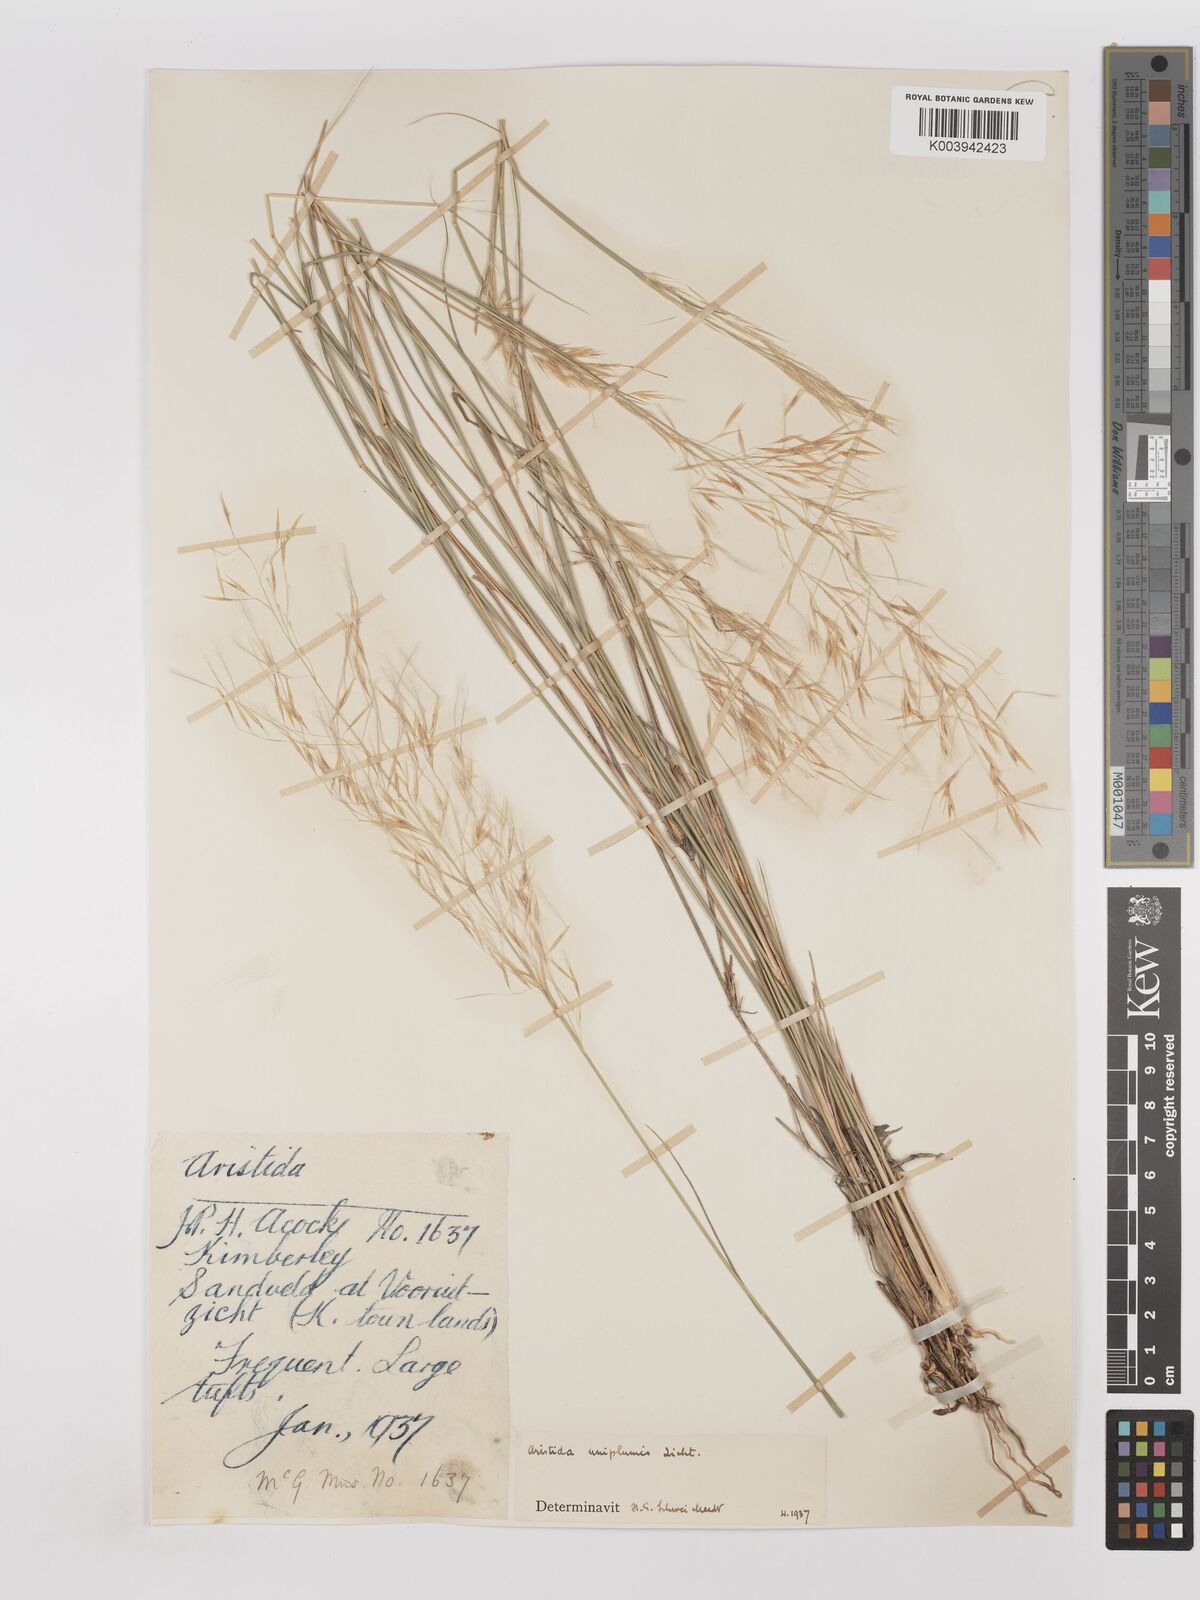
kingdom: Plantae
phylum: Tracheophyta
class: Liliopsida
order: Poales
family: Poaceae
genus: Stipagrostis
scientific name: Stipagrostis uniplumis
